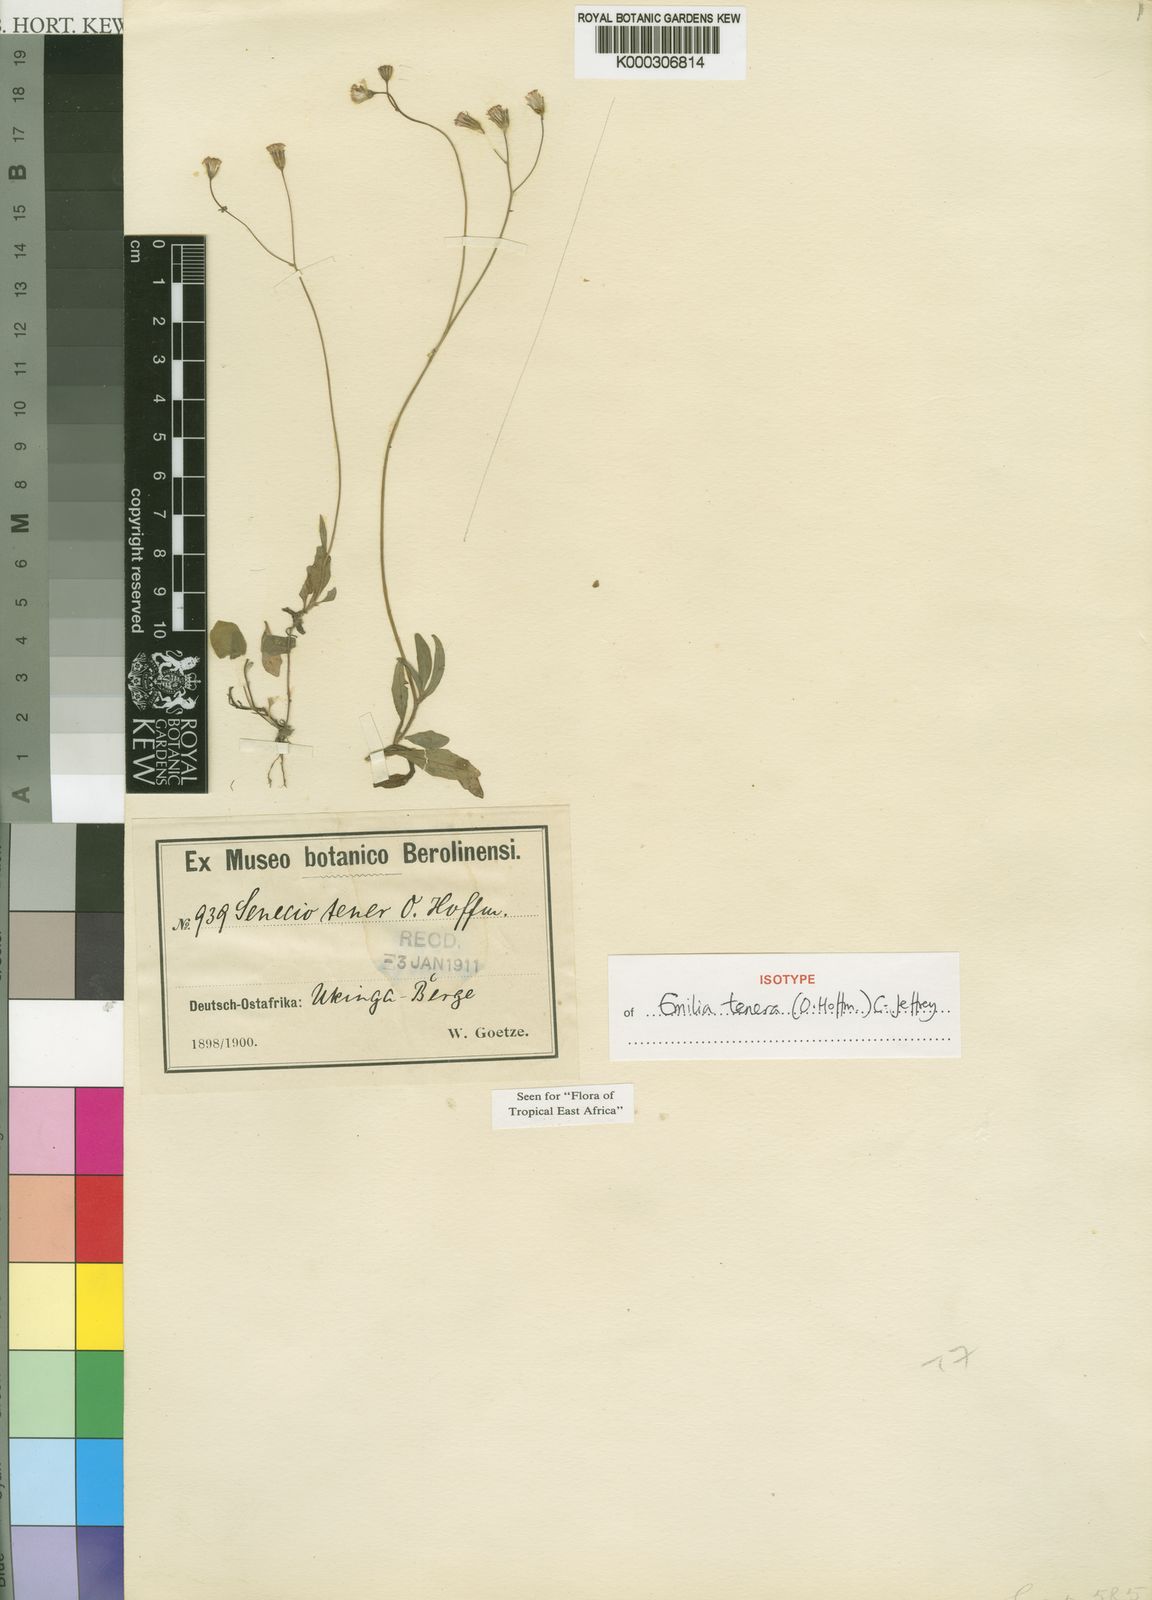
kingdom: Plantae
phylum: Tracheophyta
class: Magnoliopsida
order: Asterales
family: Asteraceae
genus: Emilia
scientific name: Emilia tenera
